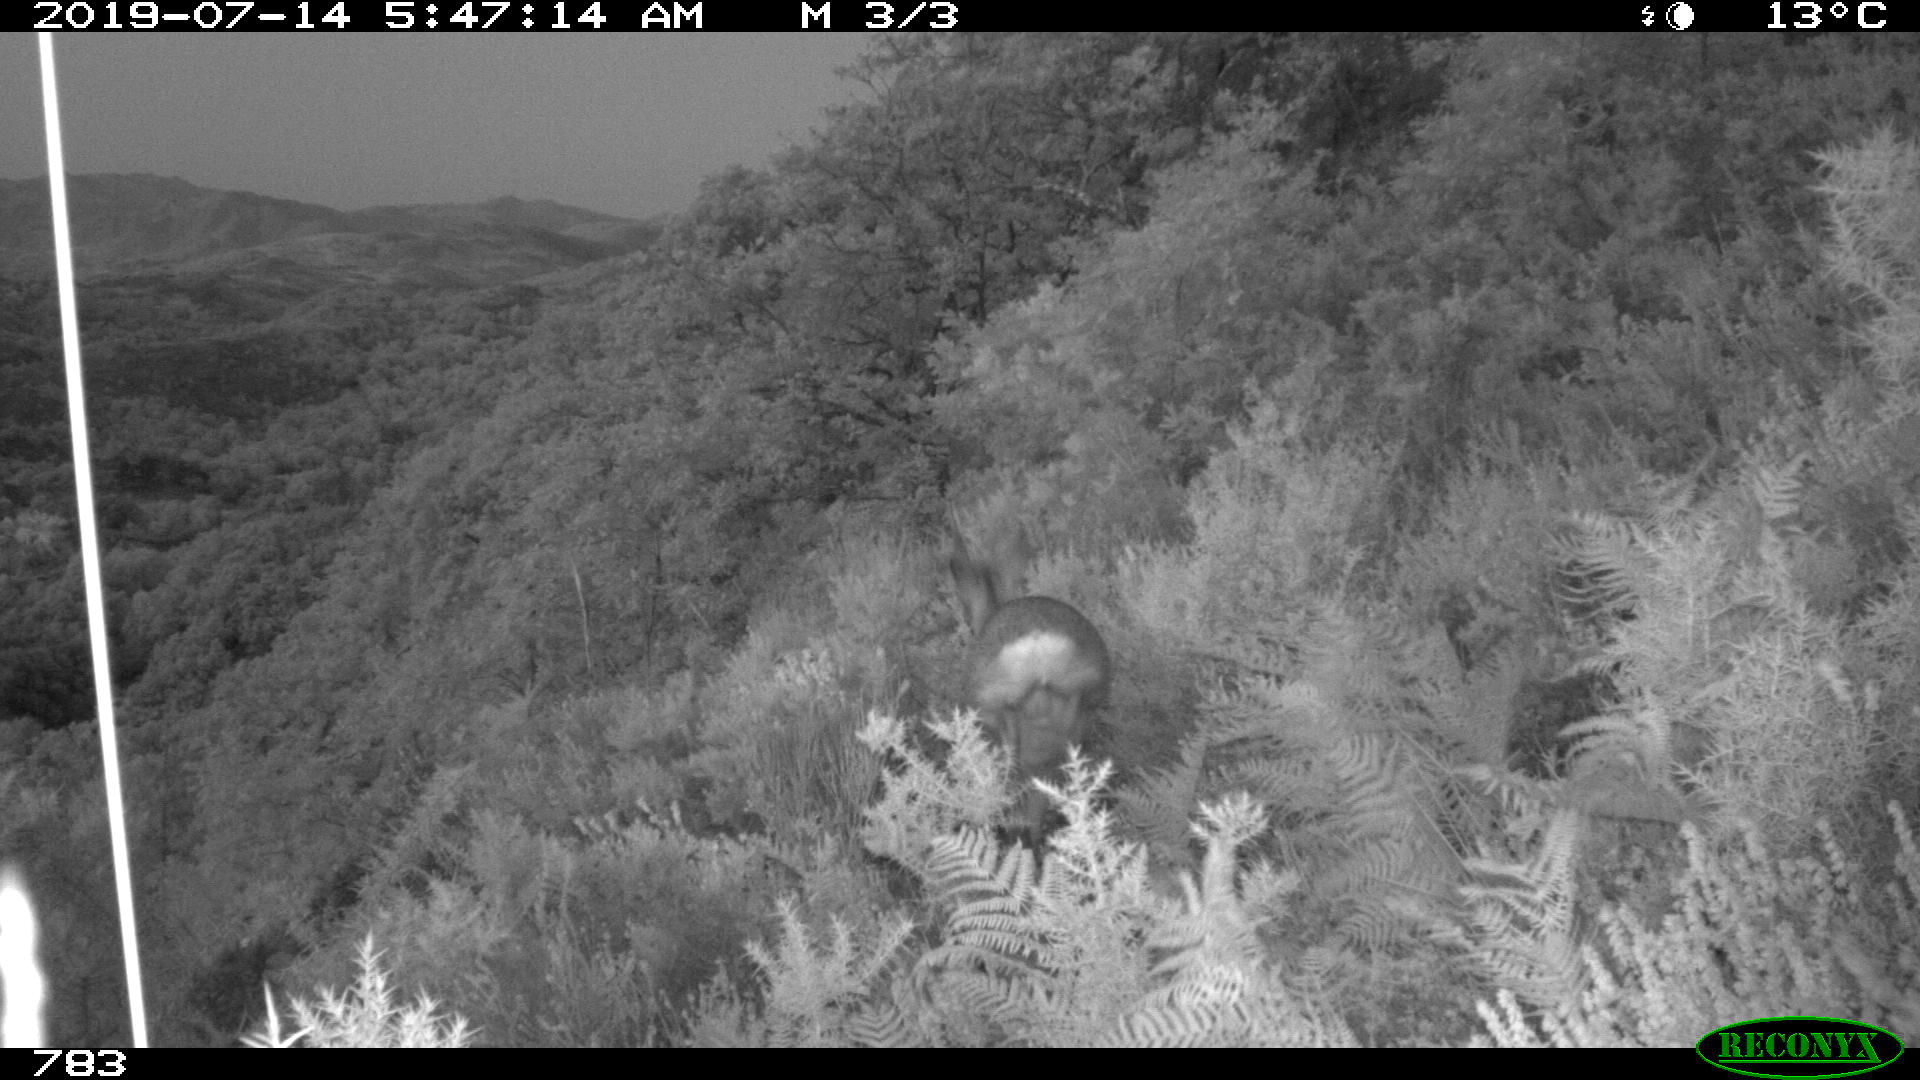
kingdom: Animalia
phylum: Chordata
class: Mammalia
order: Artiodactyla
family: Cervidae
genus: Capreolus
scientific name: Capreolus capreolus
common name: Western roe deer
